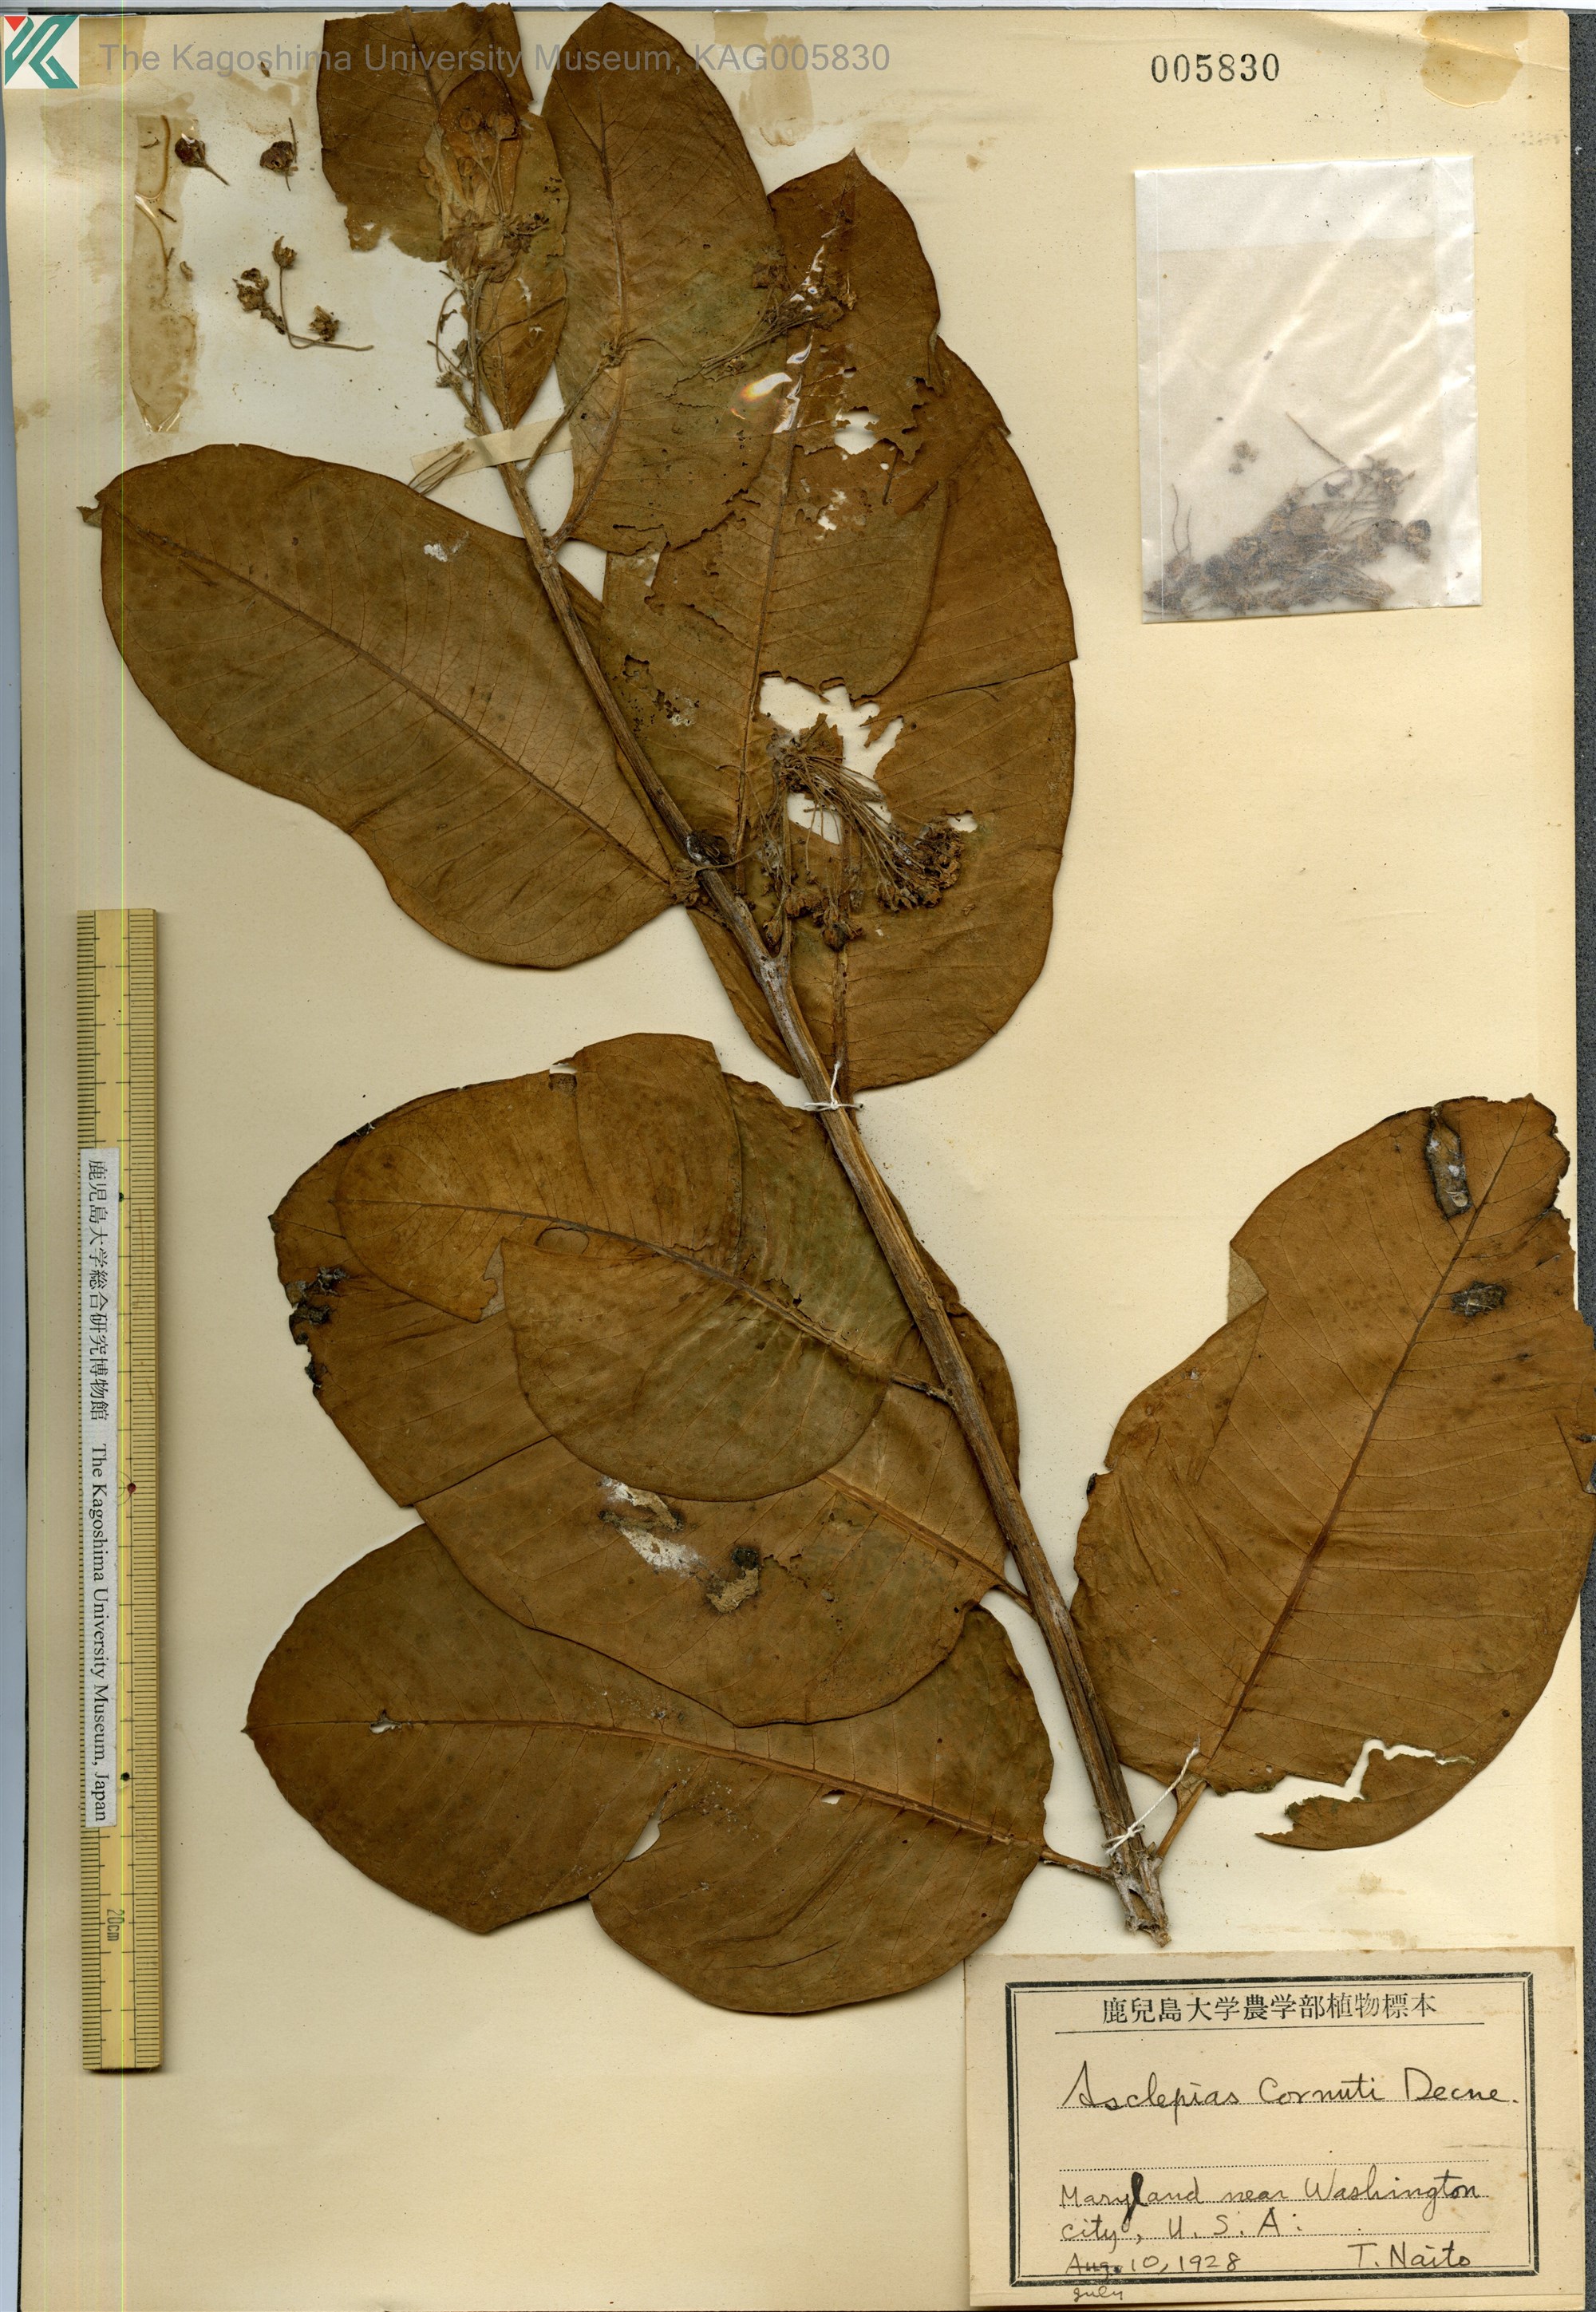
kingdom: Plantae
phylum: Tracheophyta
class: Magnoliopsida
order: Gentianales
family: Apocynaceae
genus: Asclepias
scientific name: Asclepias syriaca
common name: Common milkweed
